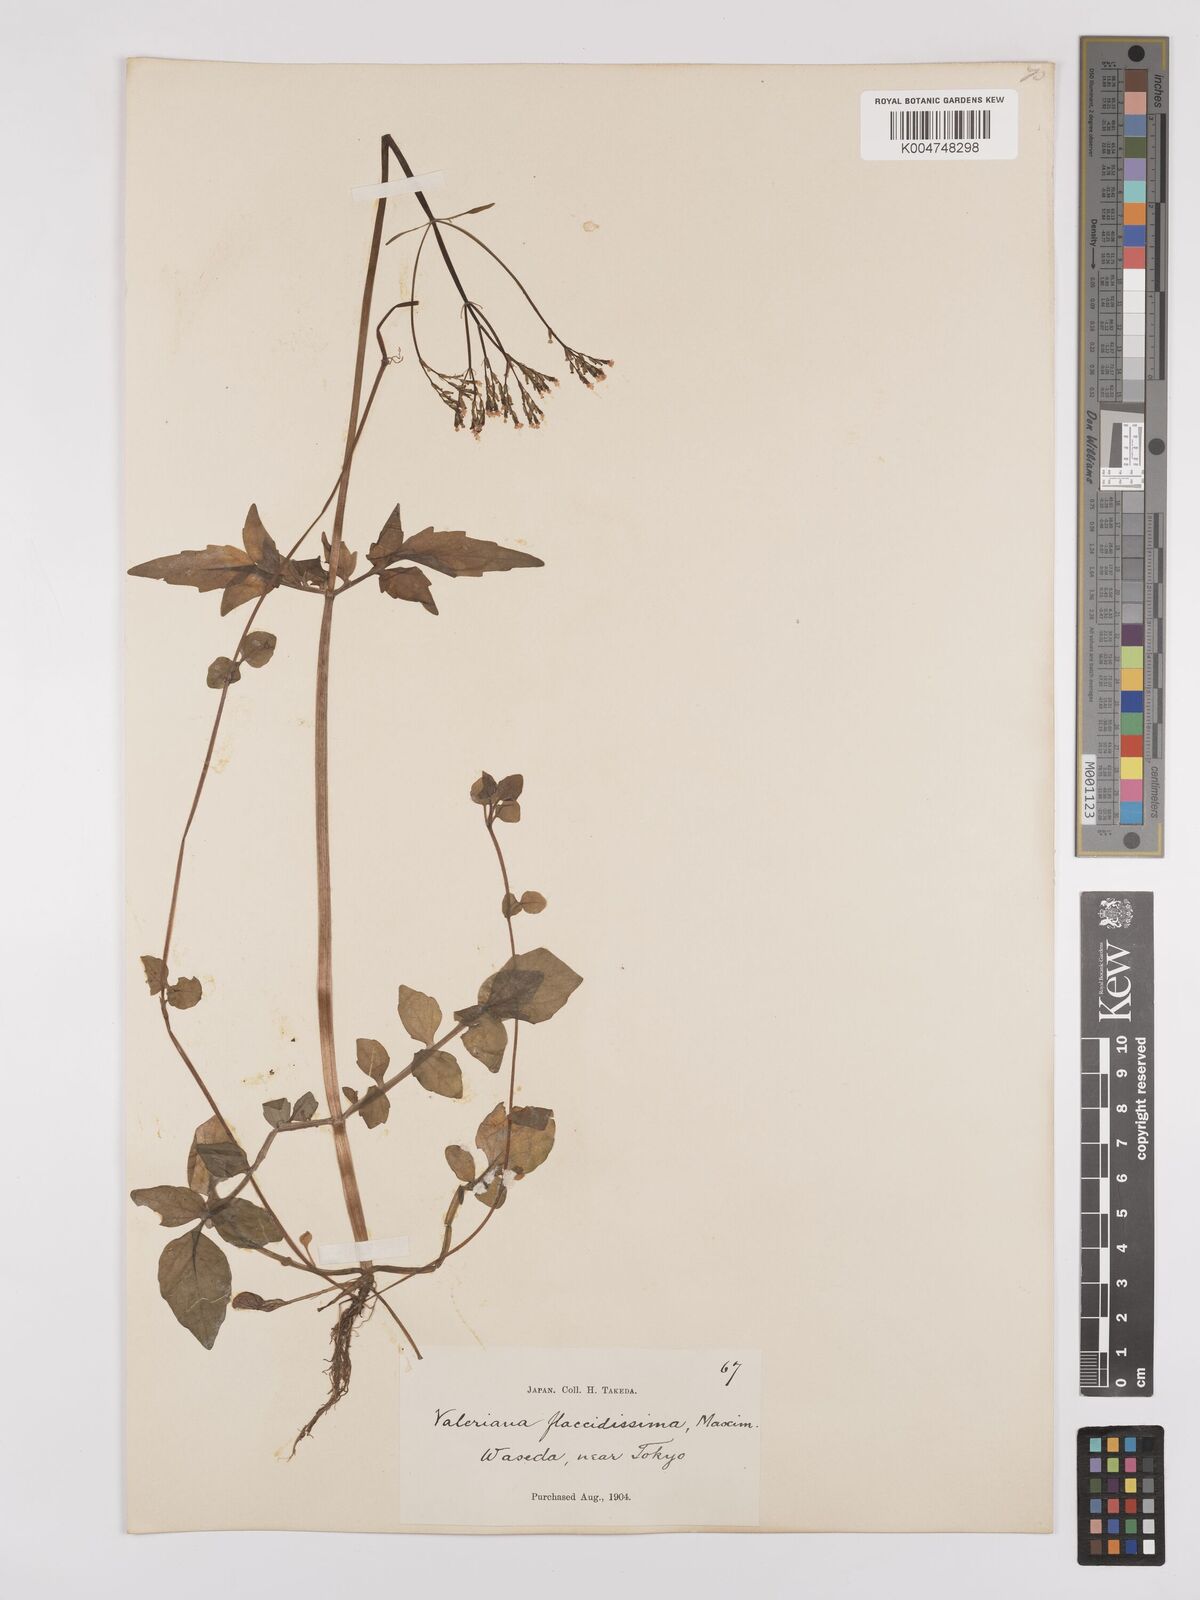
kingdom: Plantae
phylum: Tracheophyta
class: Magnoliopsida
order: Dipsacales
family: Caprifoliaceae
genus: Valeriana
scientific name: Valeriana flaccidissima
